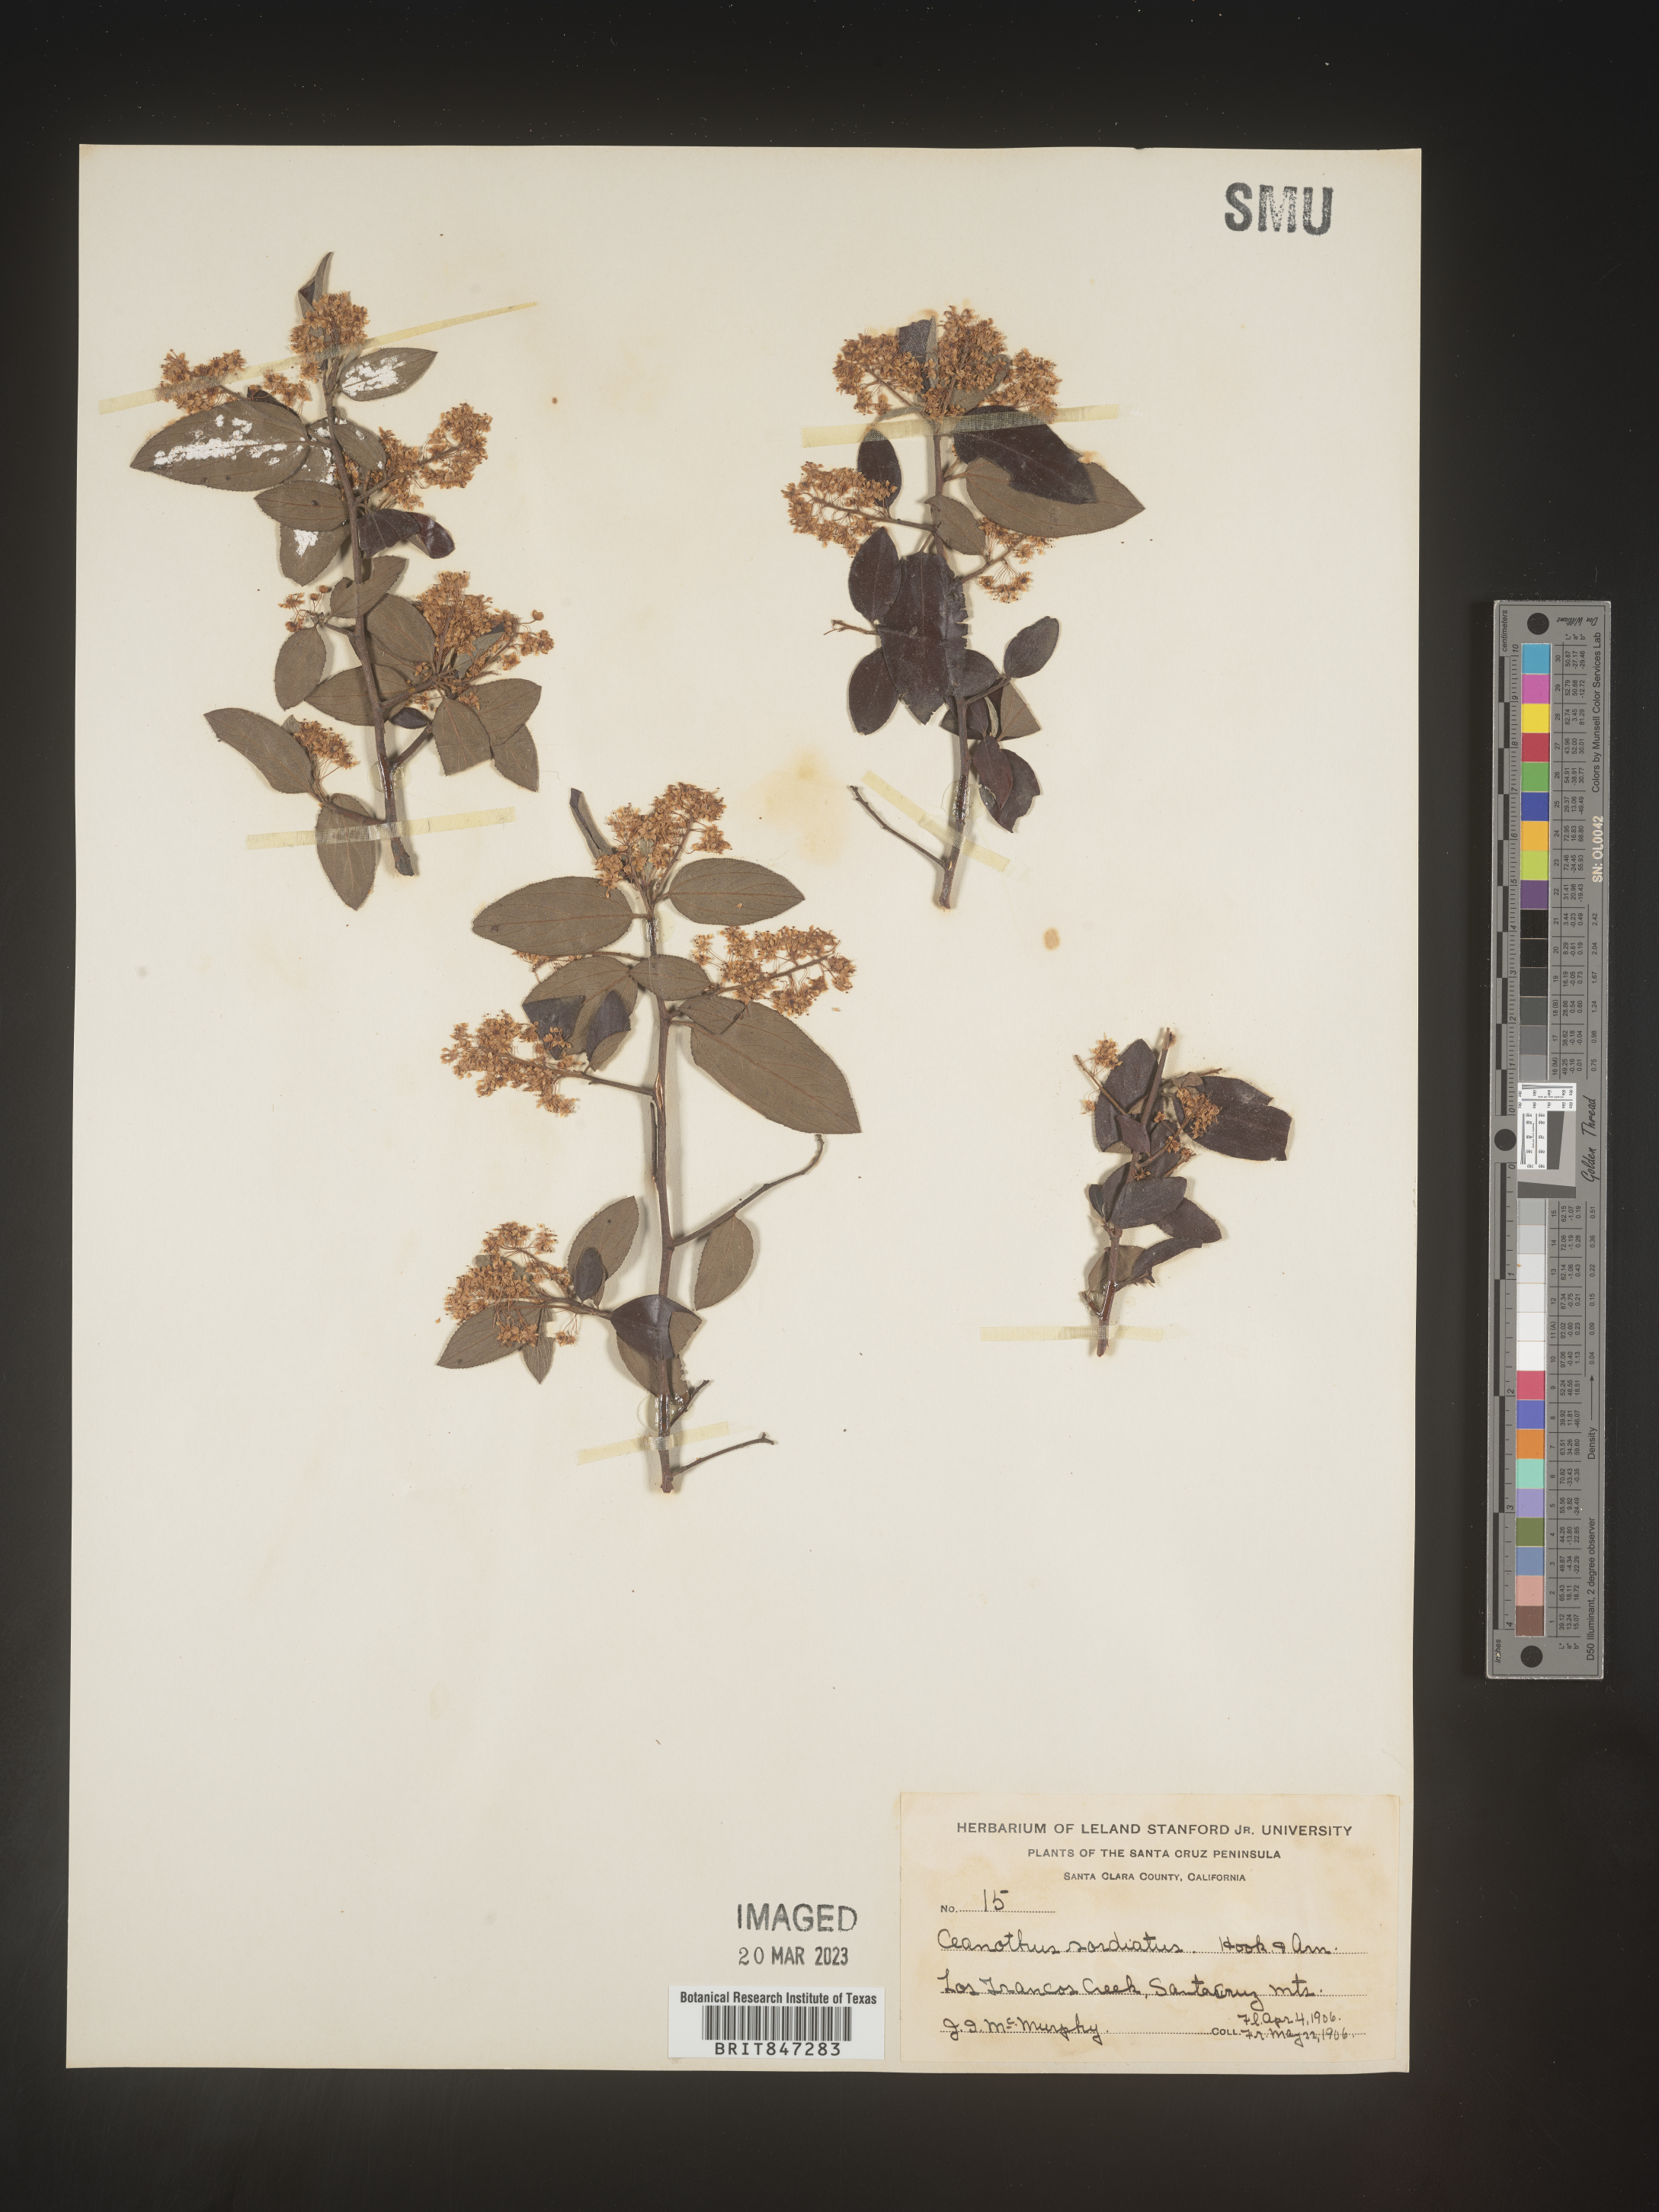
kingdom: Plantae
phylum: Tracheophyta
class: Magnoliopsida
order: Rosales
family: Rhamnaceae
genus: Ceanothus
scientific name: Ceanothus
